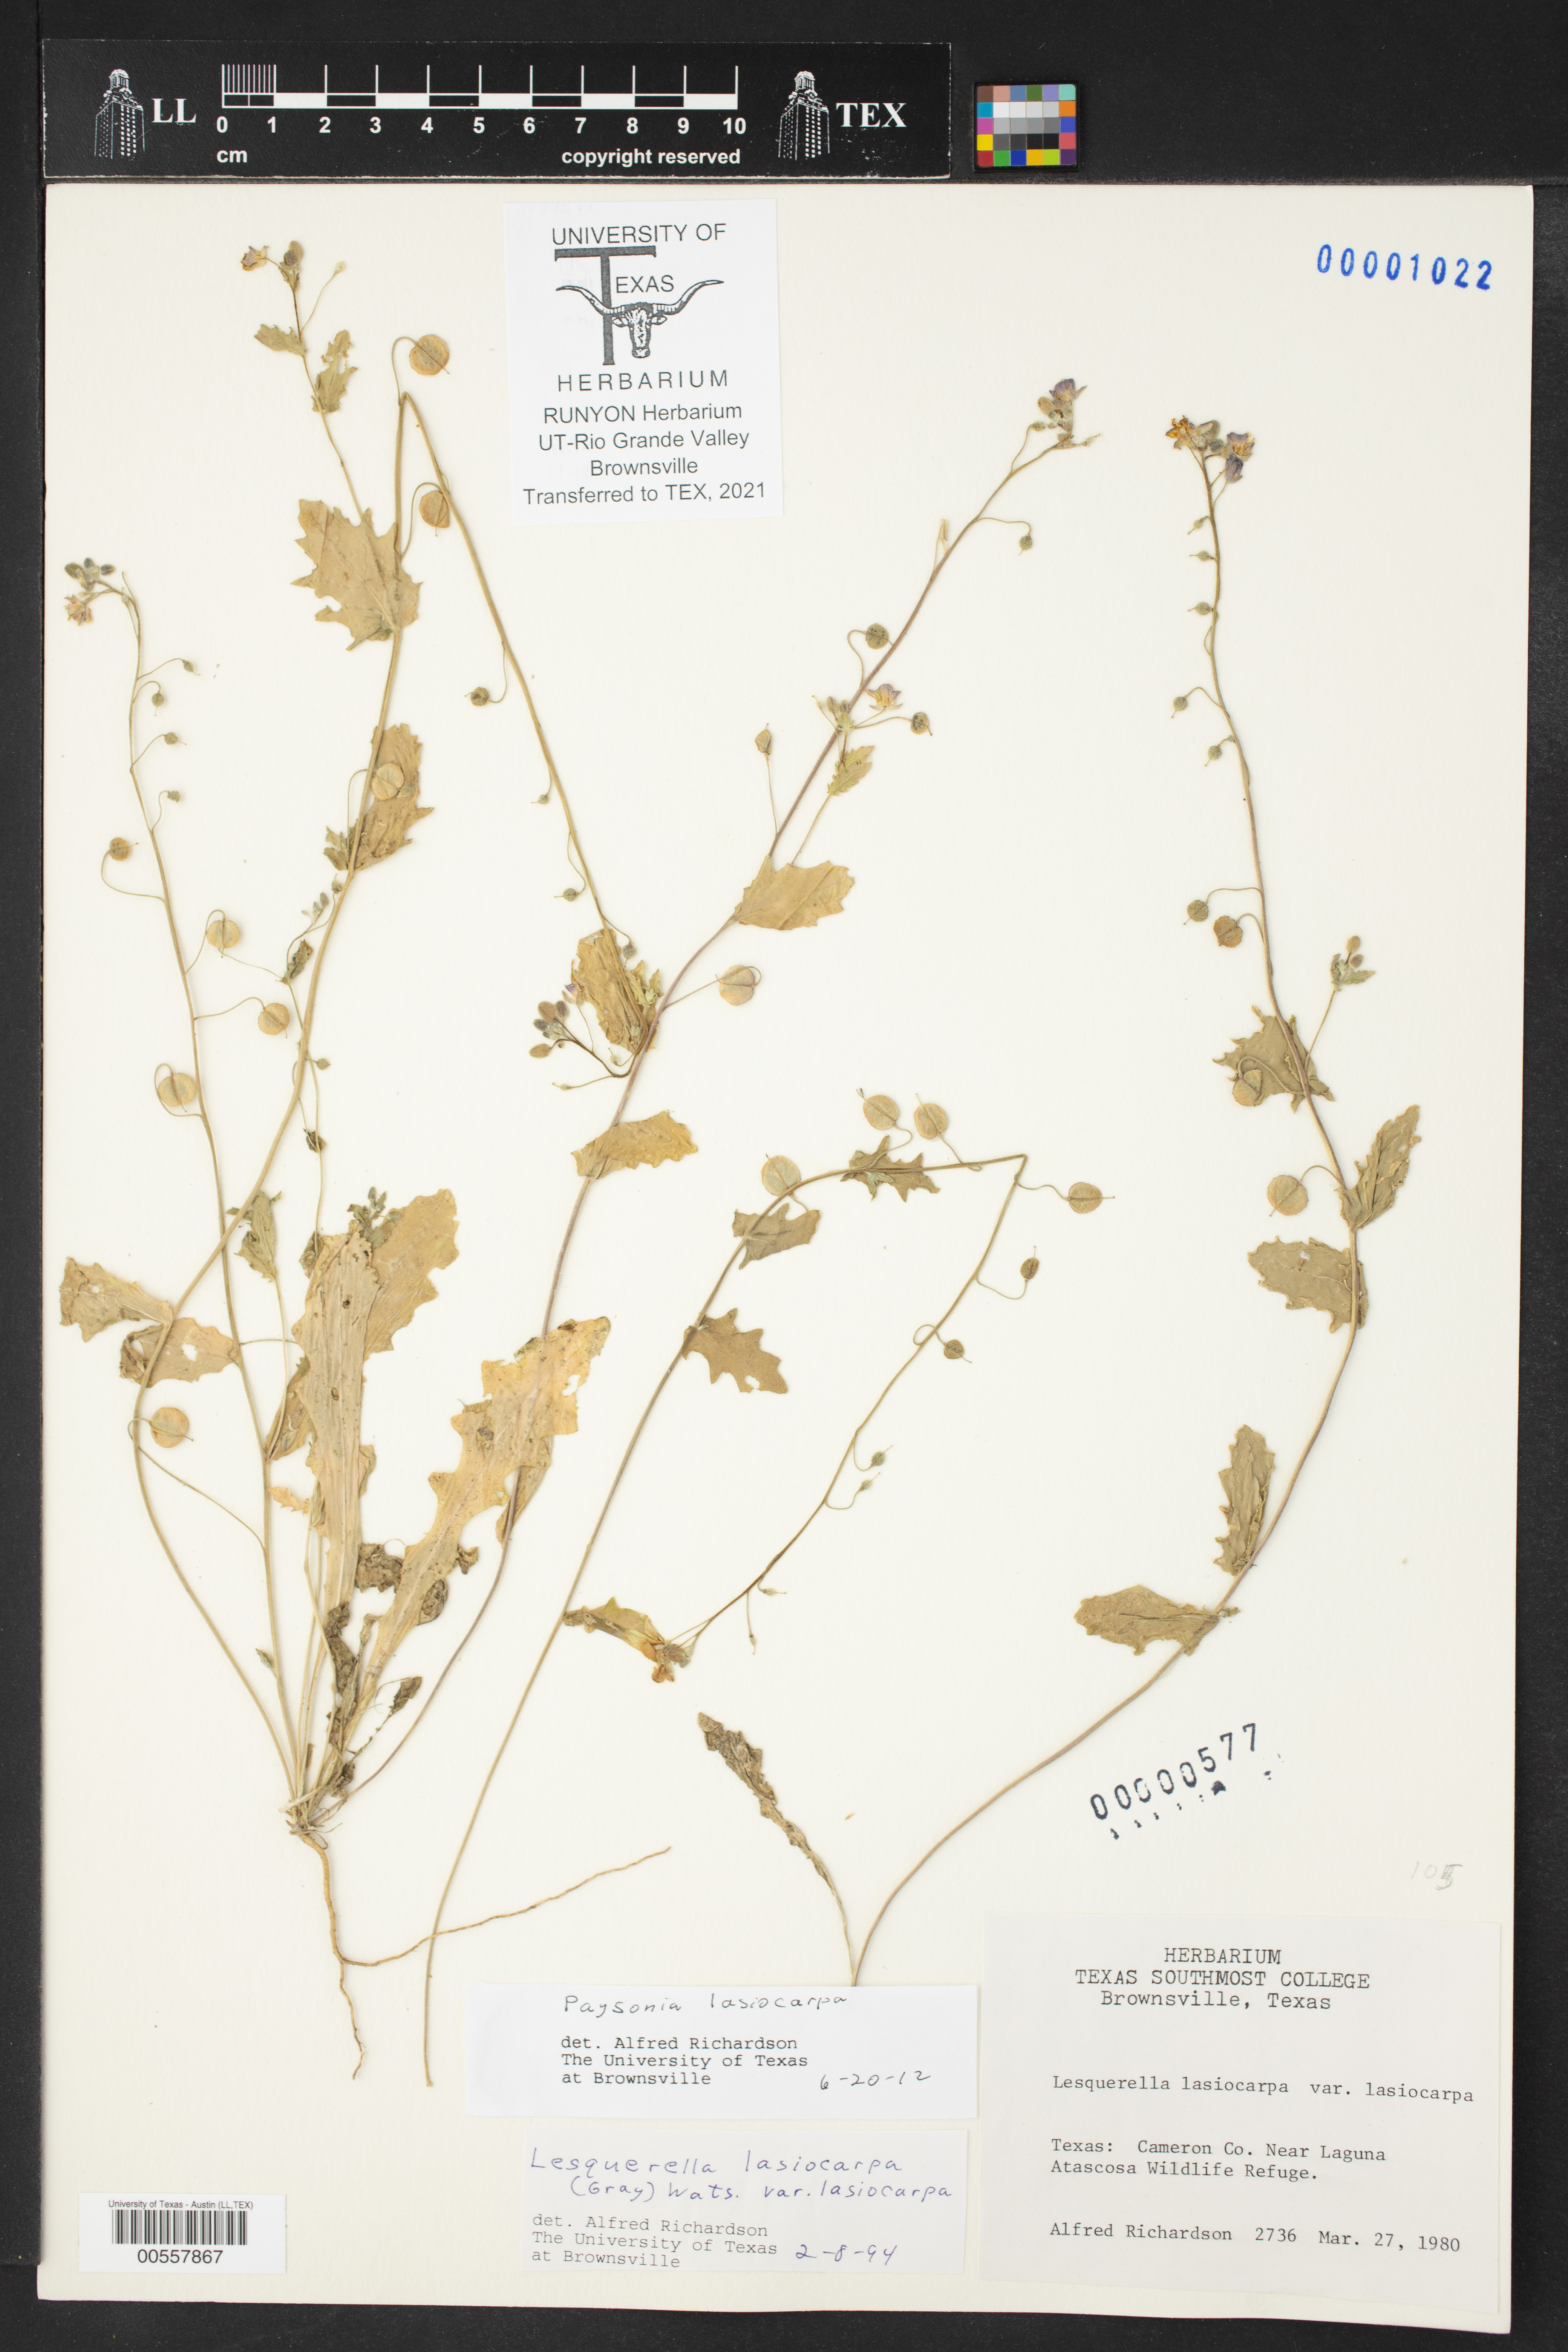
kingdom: Plantae
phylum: Tracheophyta
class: Magnoliopsida
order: Brassicales
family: Brassicaceae
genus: Paysonia
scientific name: Paysonia lasiocarpa
